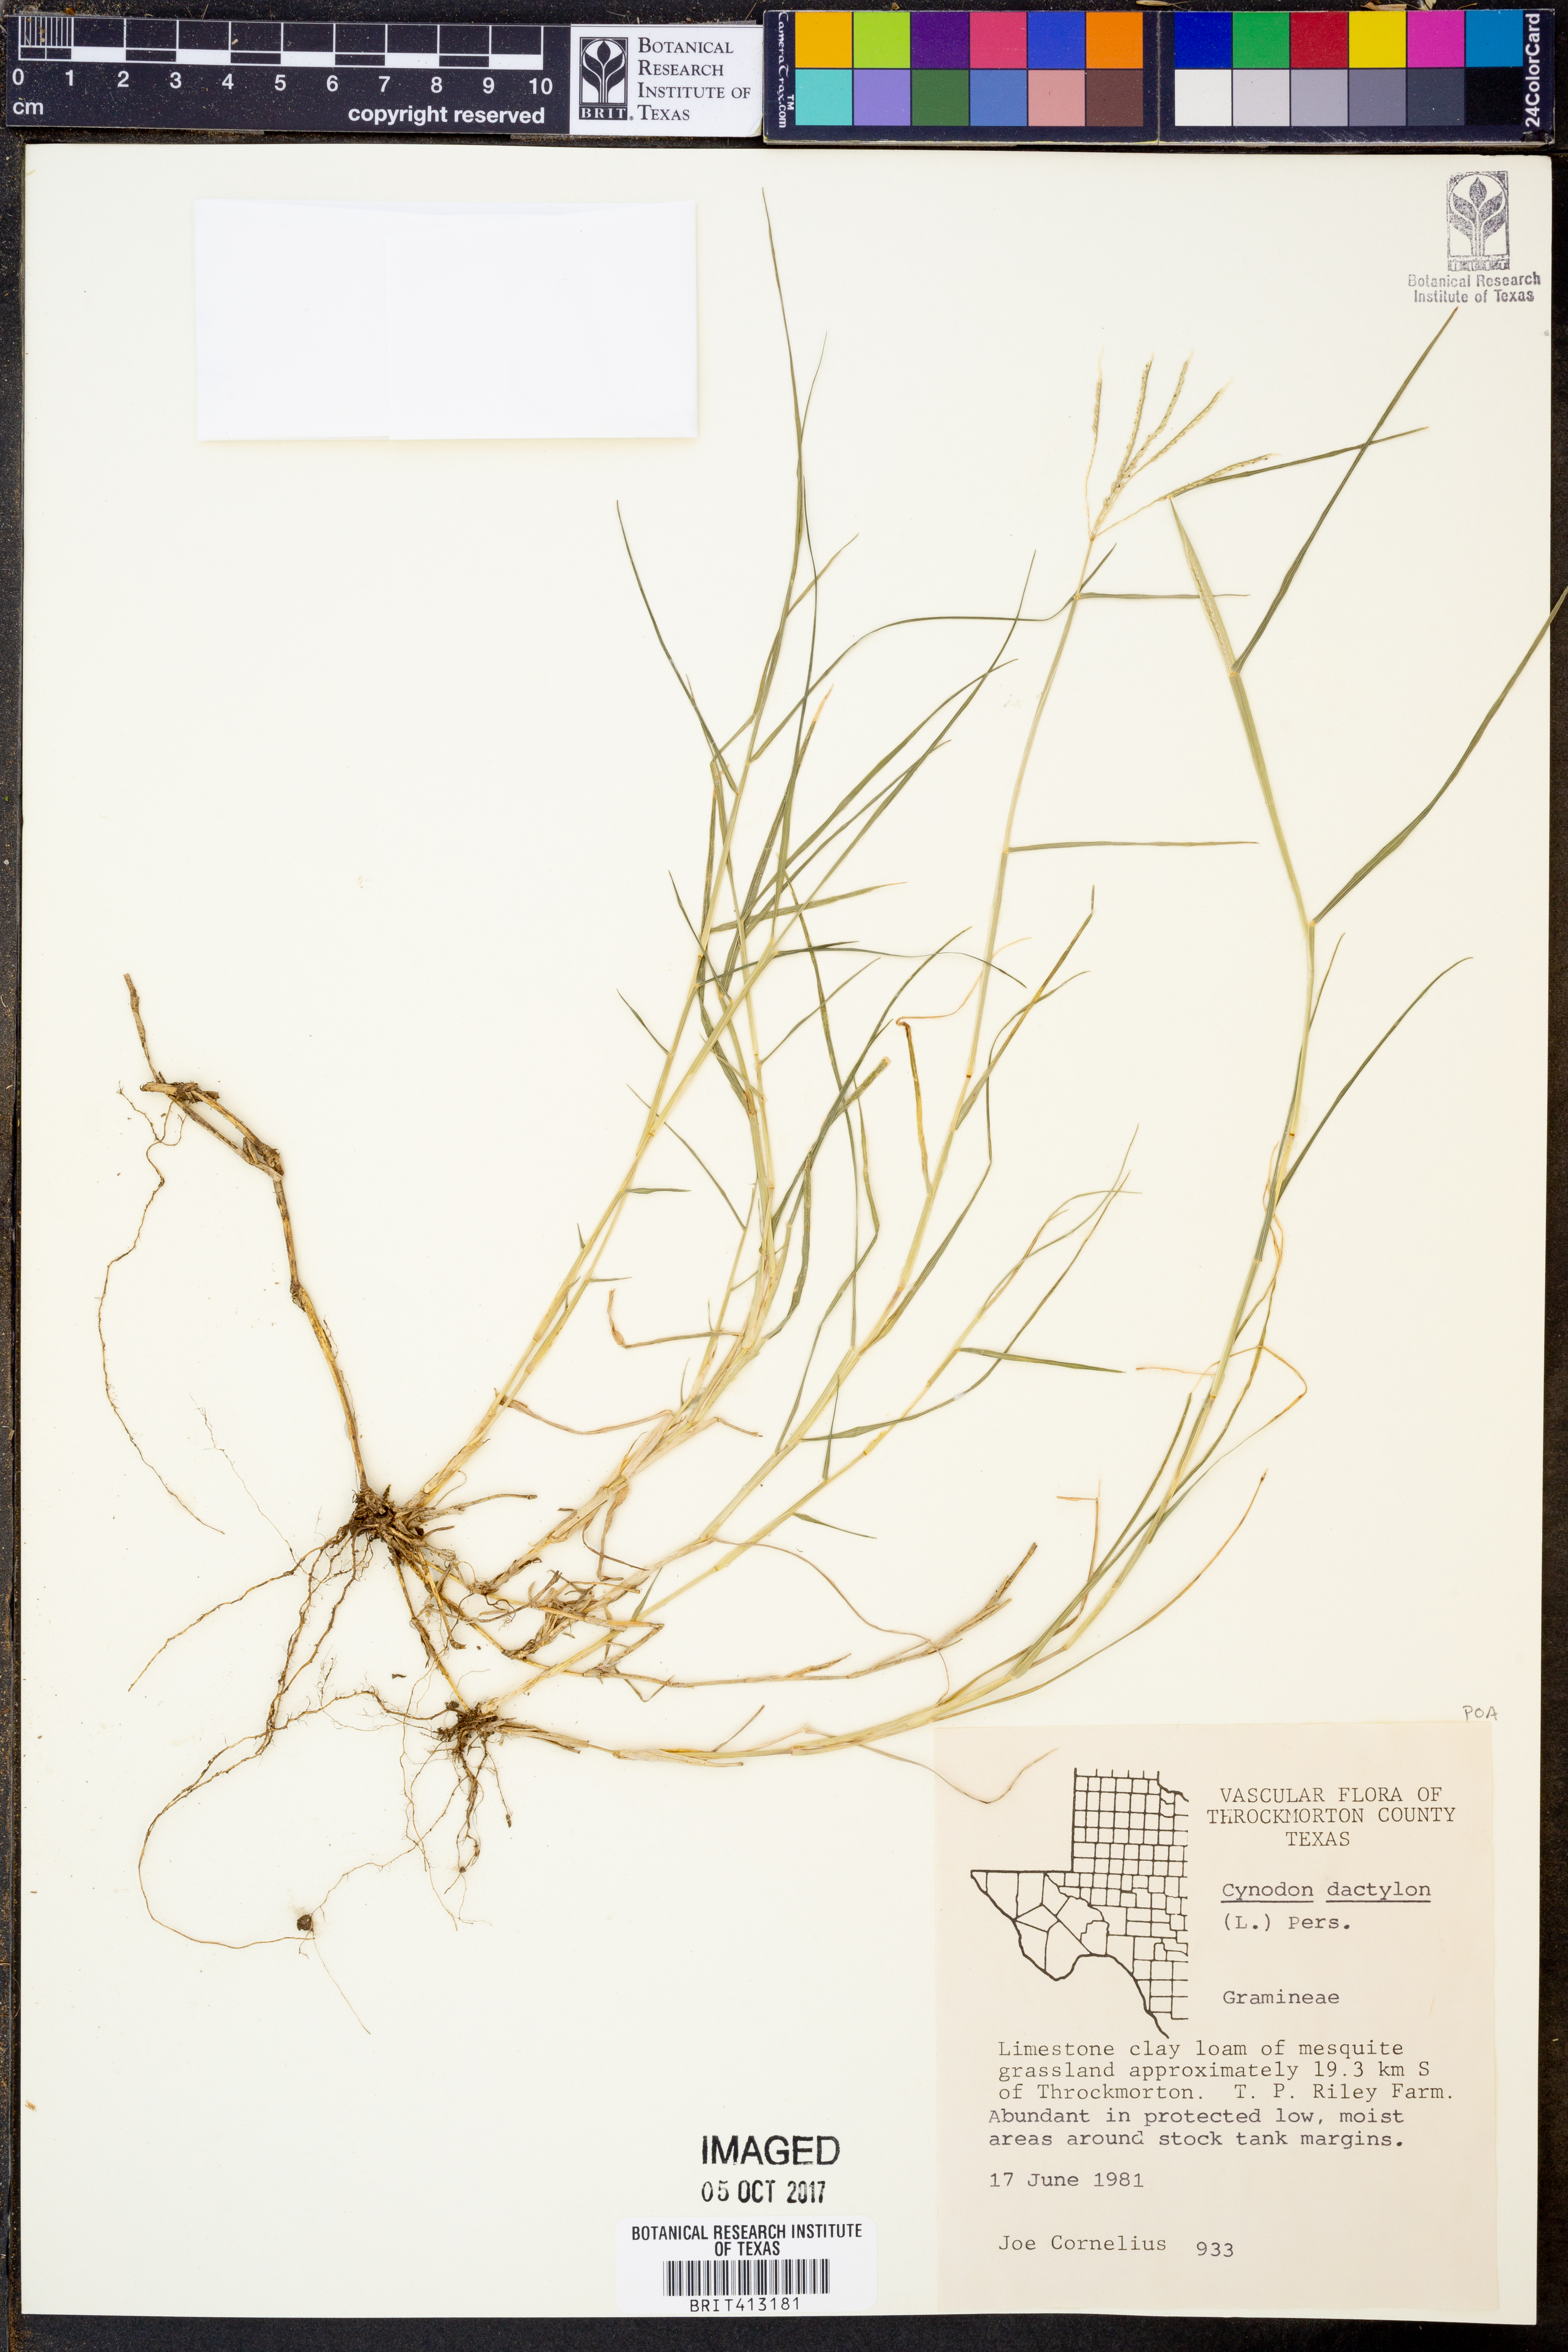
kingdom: Plantae
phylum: Tracheophyta
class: Liliopsida
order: Poales
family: Poaceae
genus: Cynodon
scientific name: Cynodon dactylon
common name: Bermuda grass
